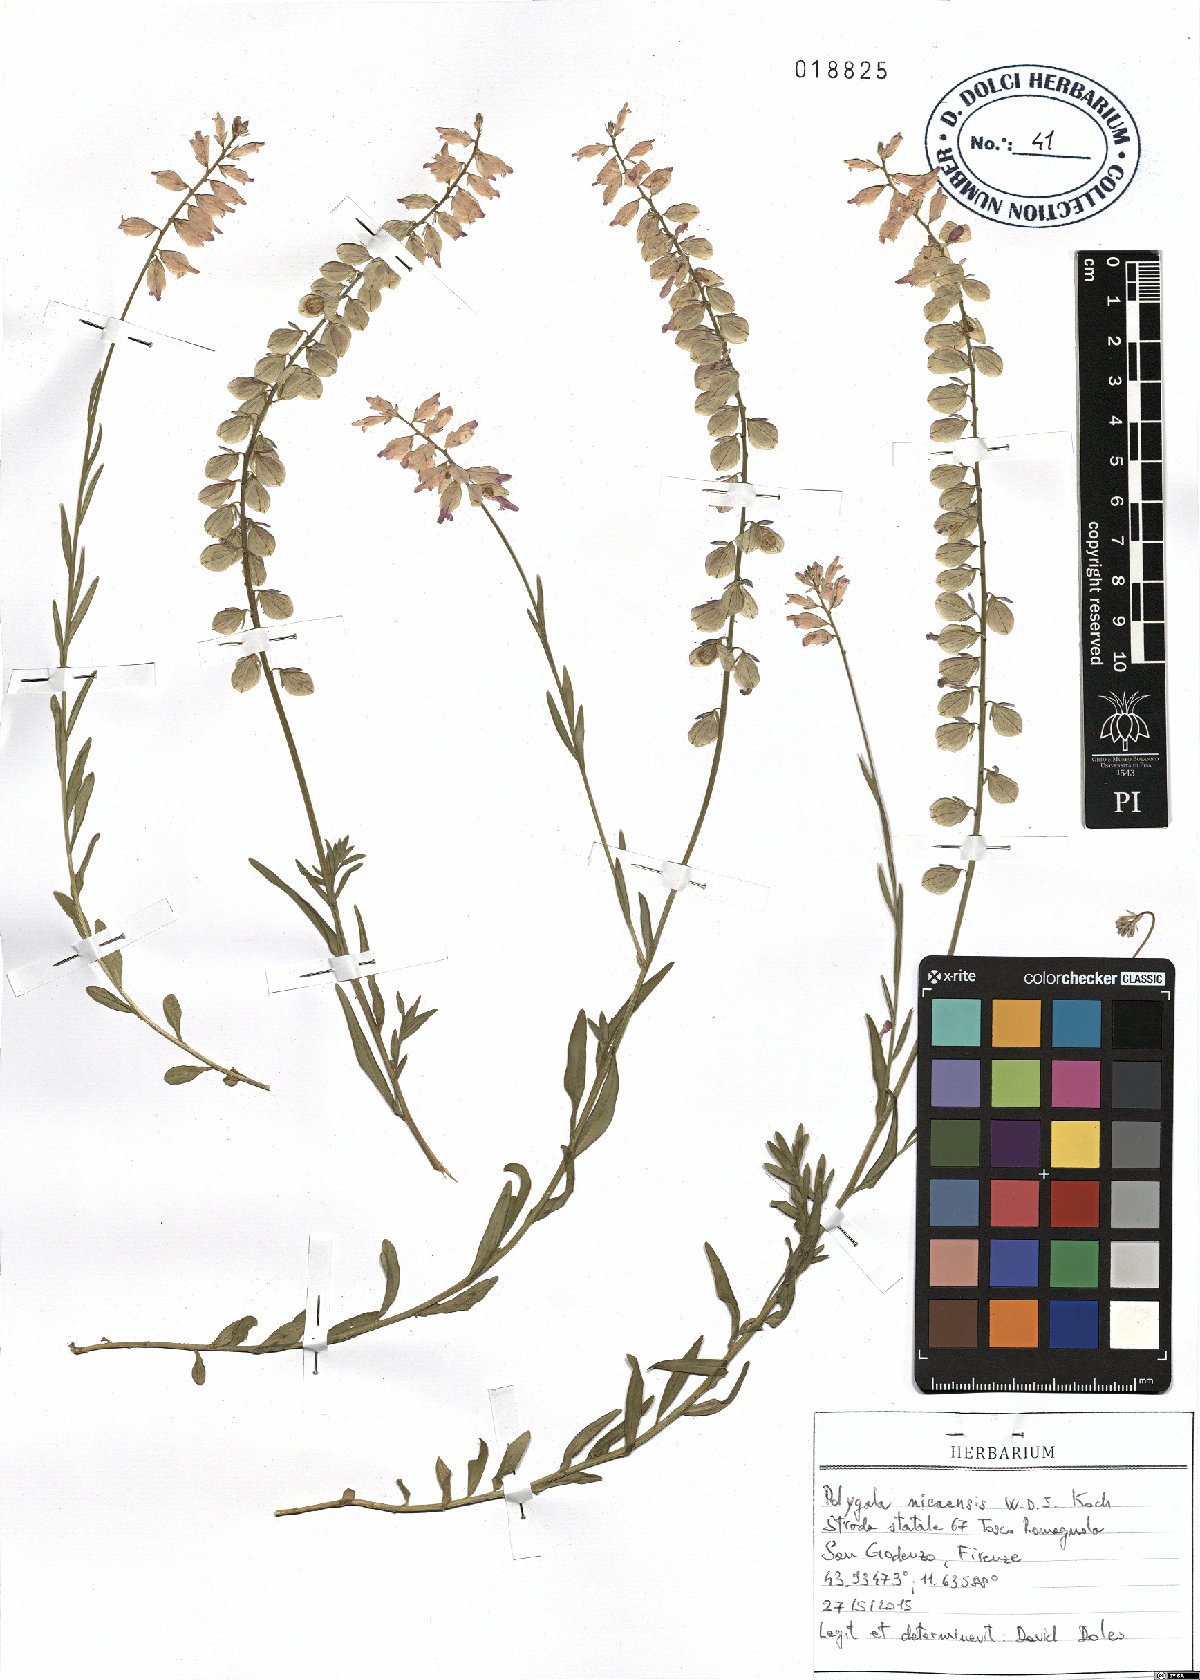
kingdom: Plantae
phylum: Tracheophyta
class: Magnoliopsida
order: Fabales
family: Polygalaceae
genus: Polygala
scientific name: Polygala nicaeensis
